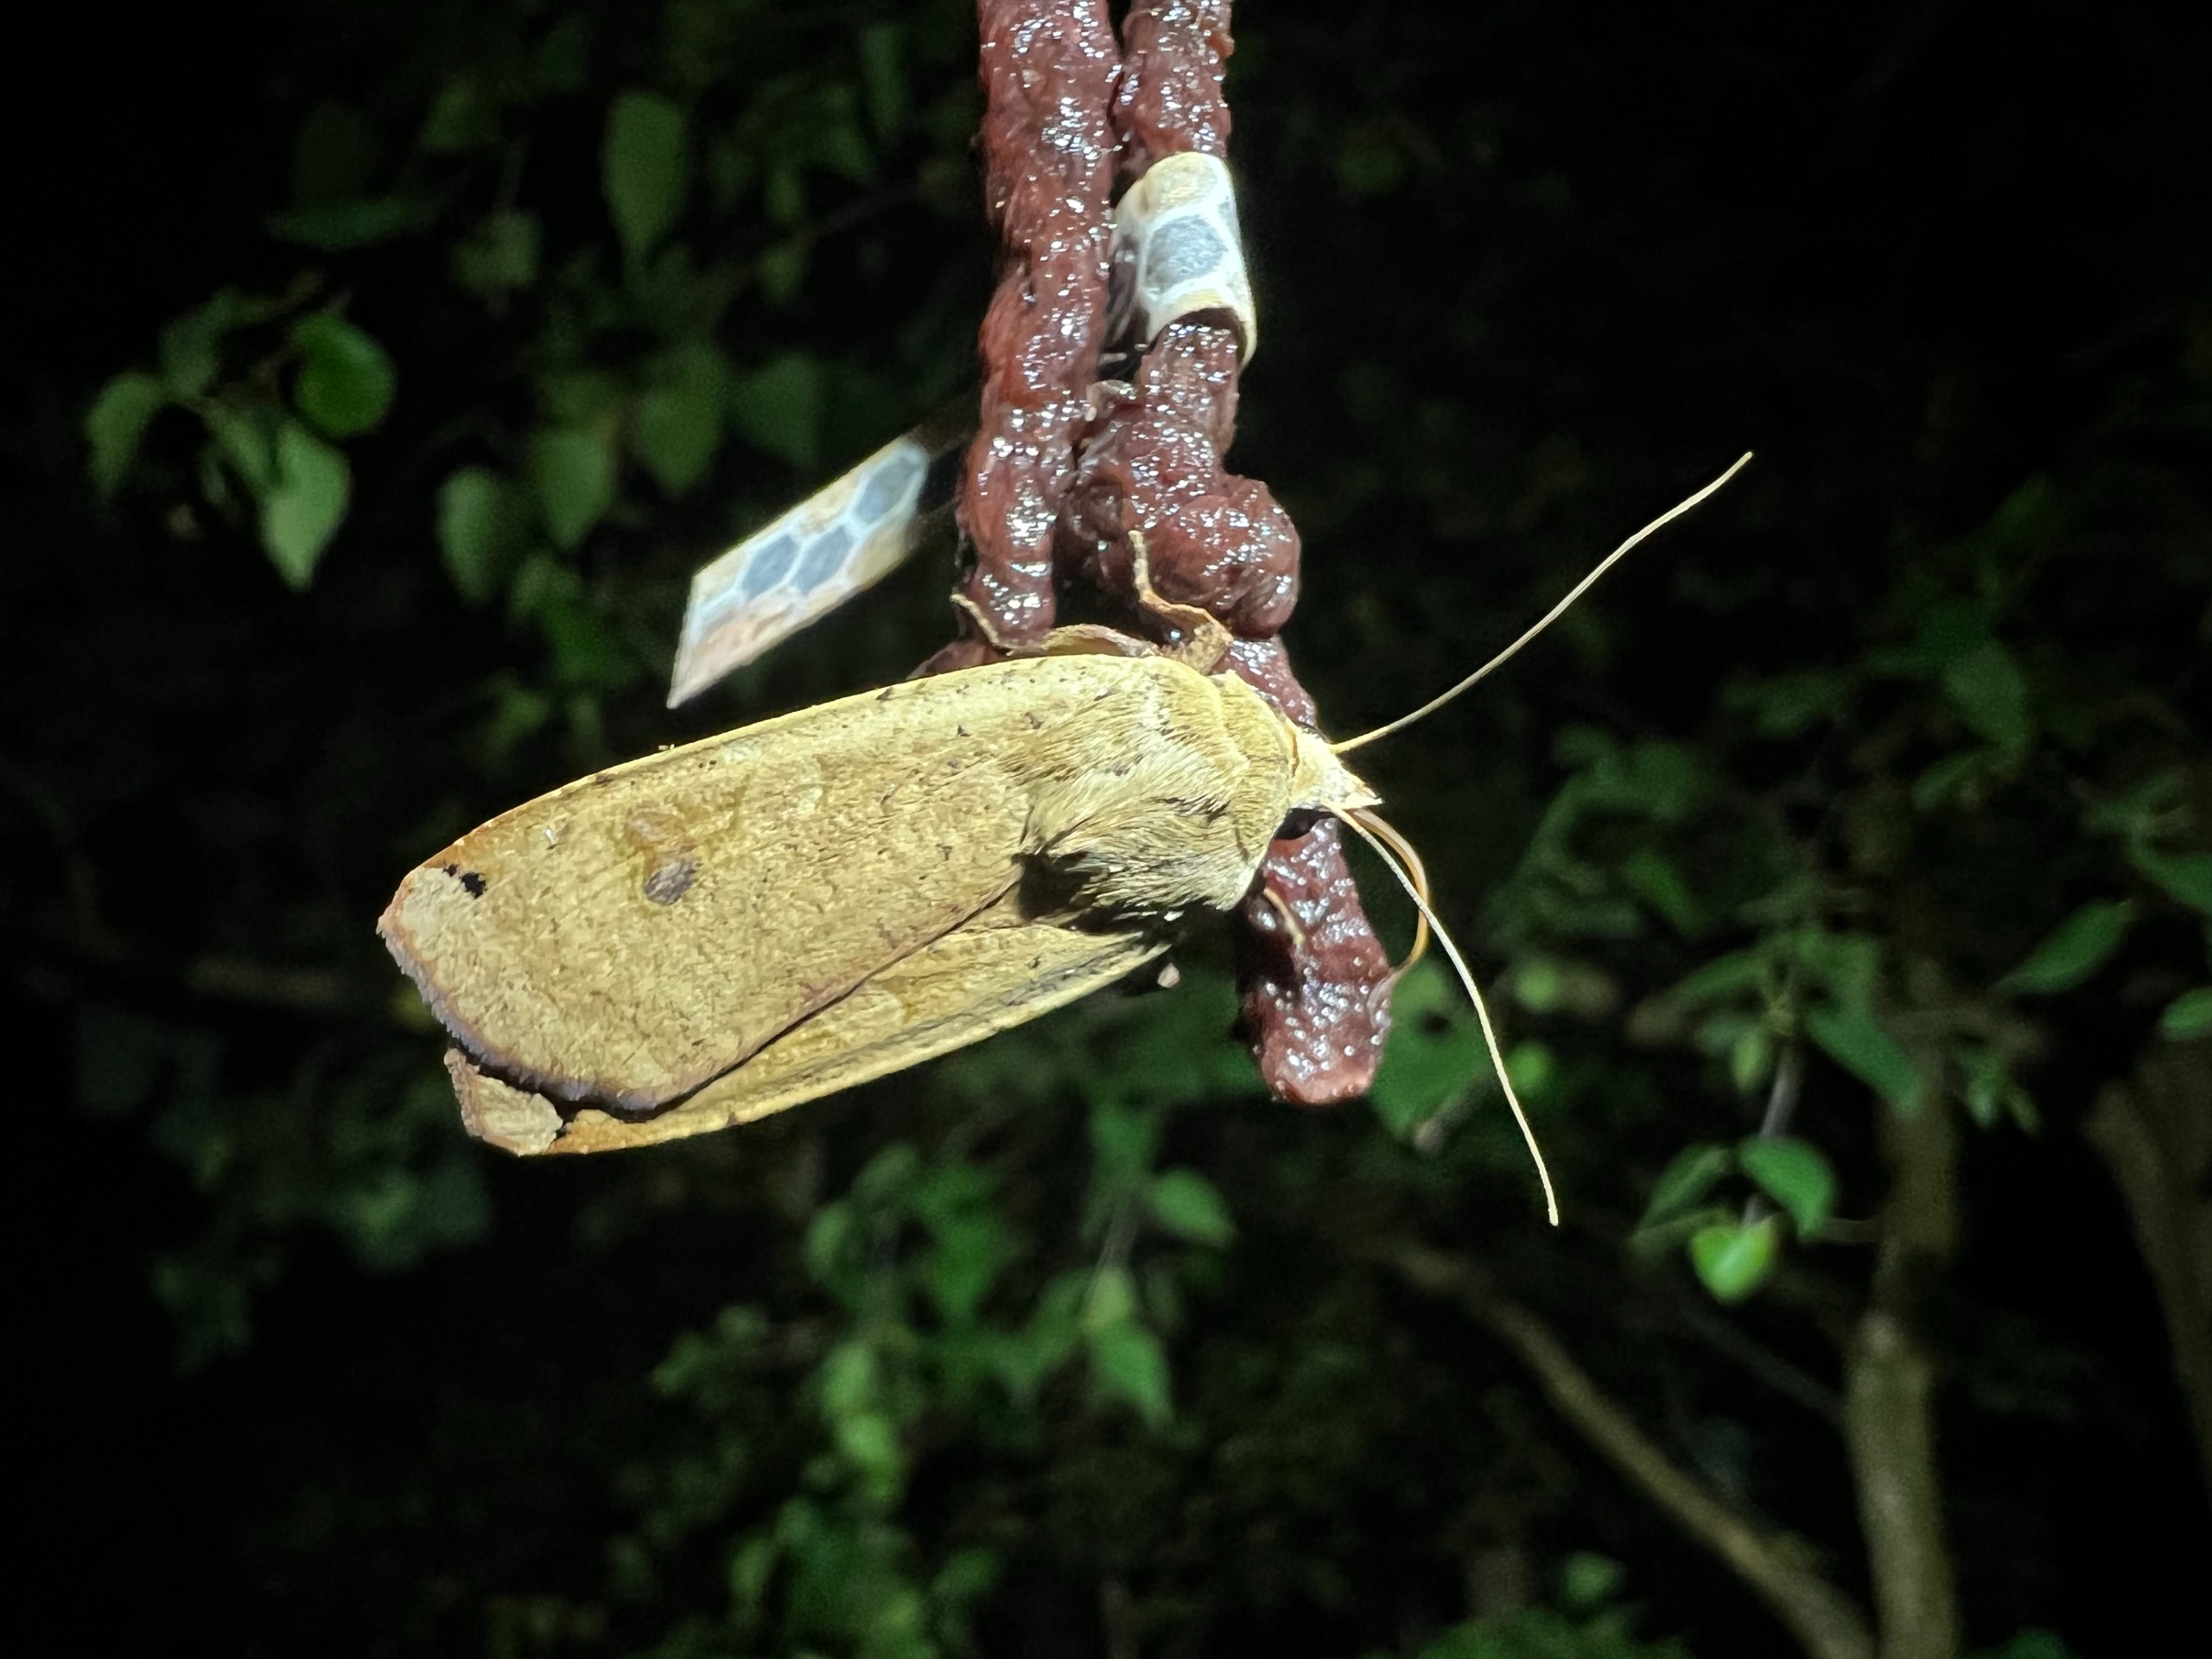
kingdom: Animalia
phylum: Arthropoda
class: Insecta
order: Lepidoptera
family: Noctuidae
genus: Noctua
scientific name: Noctua pronuba
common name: Stor smutugle
